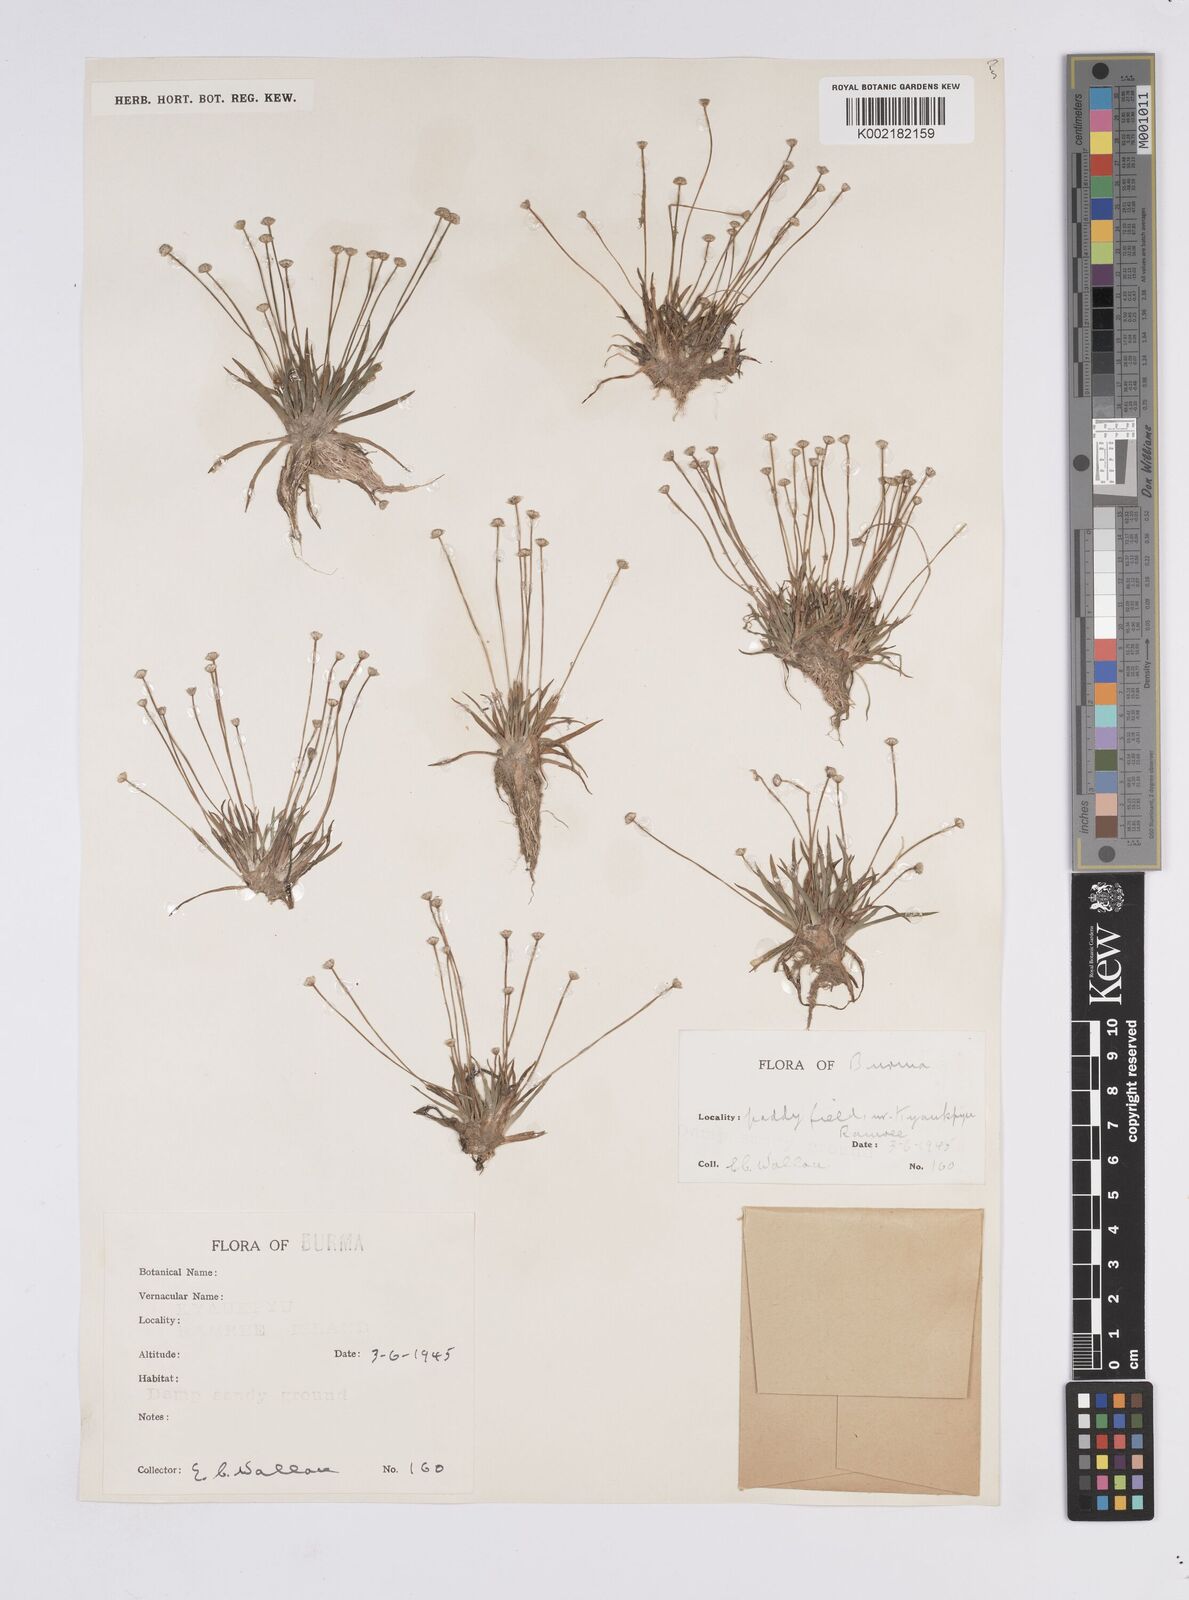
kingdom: Plantae
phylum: Tracheophyta
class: Liliopsida
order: Poales
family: Eriocaulaceae
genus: Eriocaulon
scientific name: Eriocaulon
